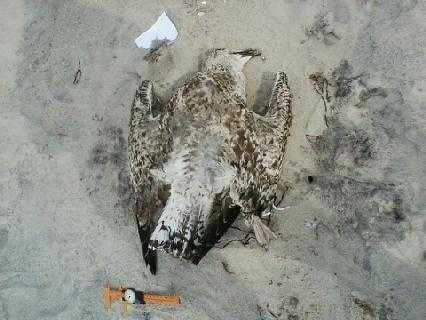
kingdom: Animalia
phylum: Chordata
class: Aves
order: Charadriiformes
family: Scolopacidae
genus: Calidris
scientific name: Calidris alba
